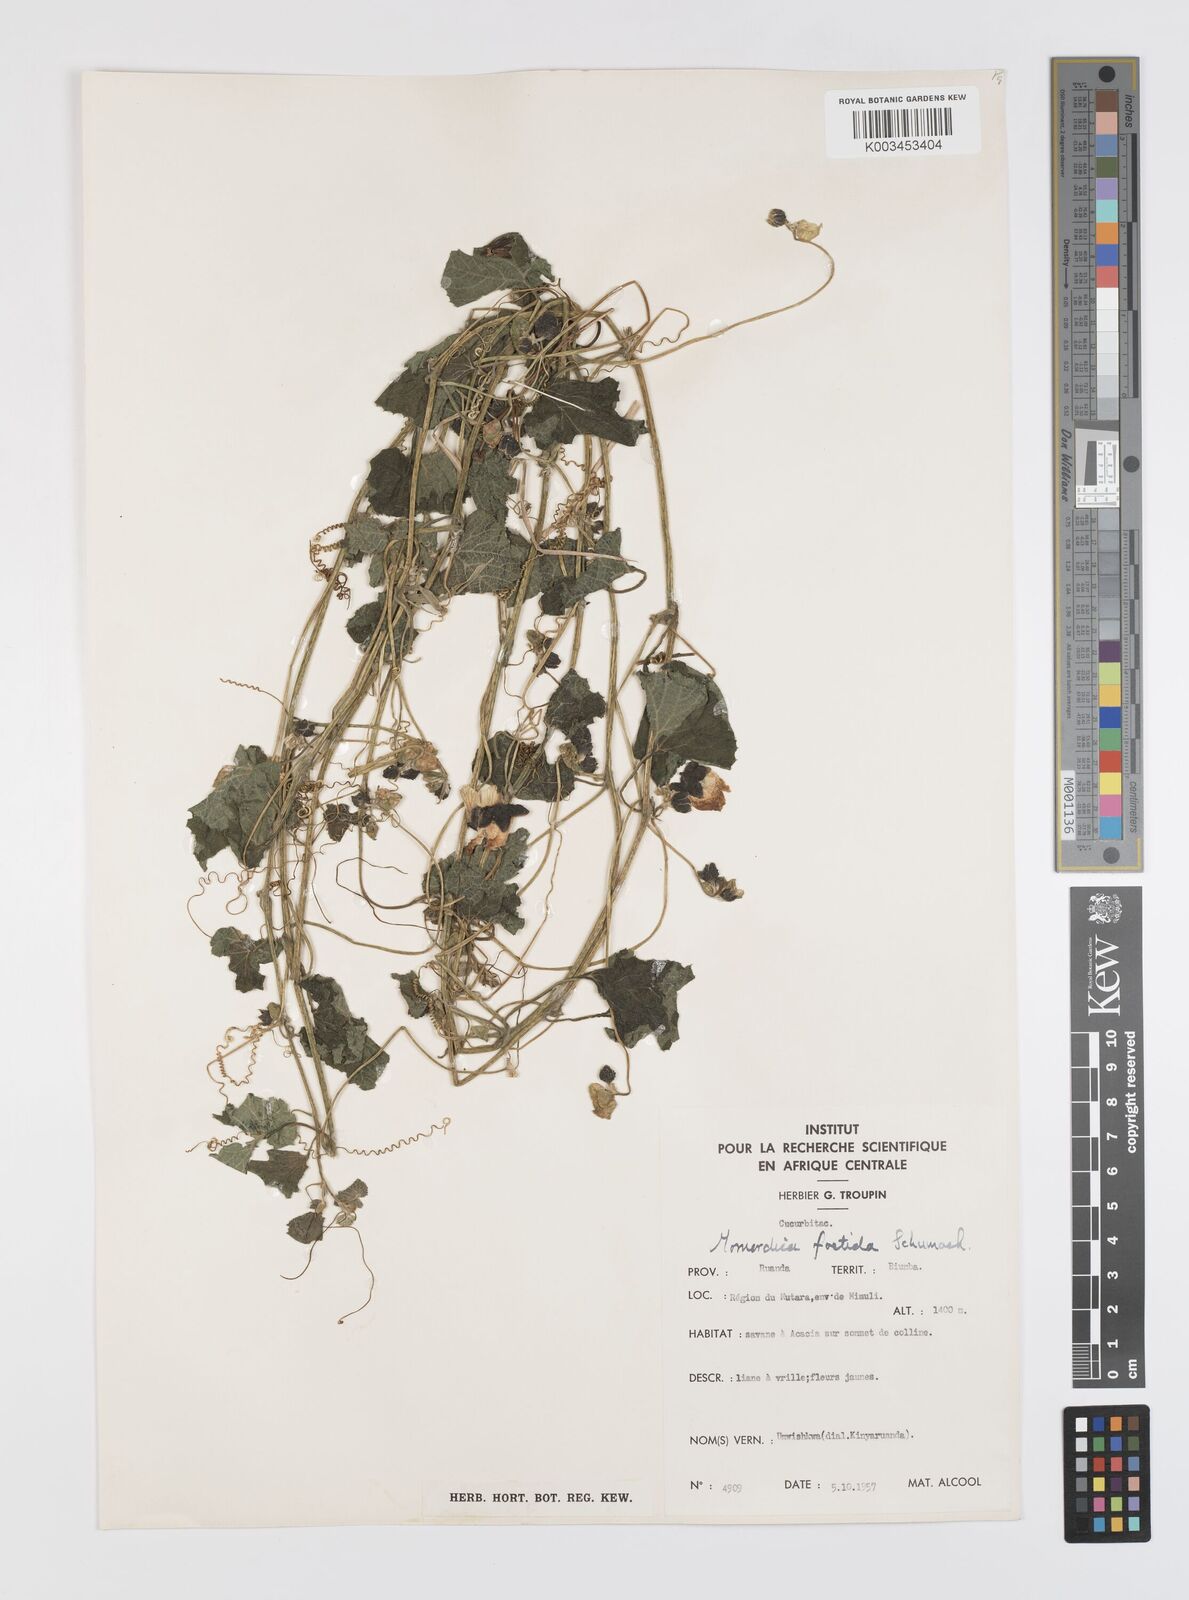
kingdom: Plantae
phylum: Tracheophyta
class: Magnoliopsida
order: Cucurbitales
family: Cucurbitaceae
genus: Momordica
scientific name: Momordica foetida
